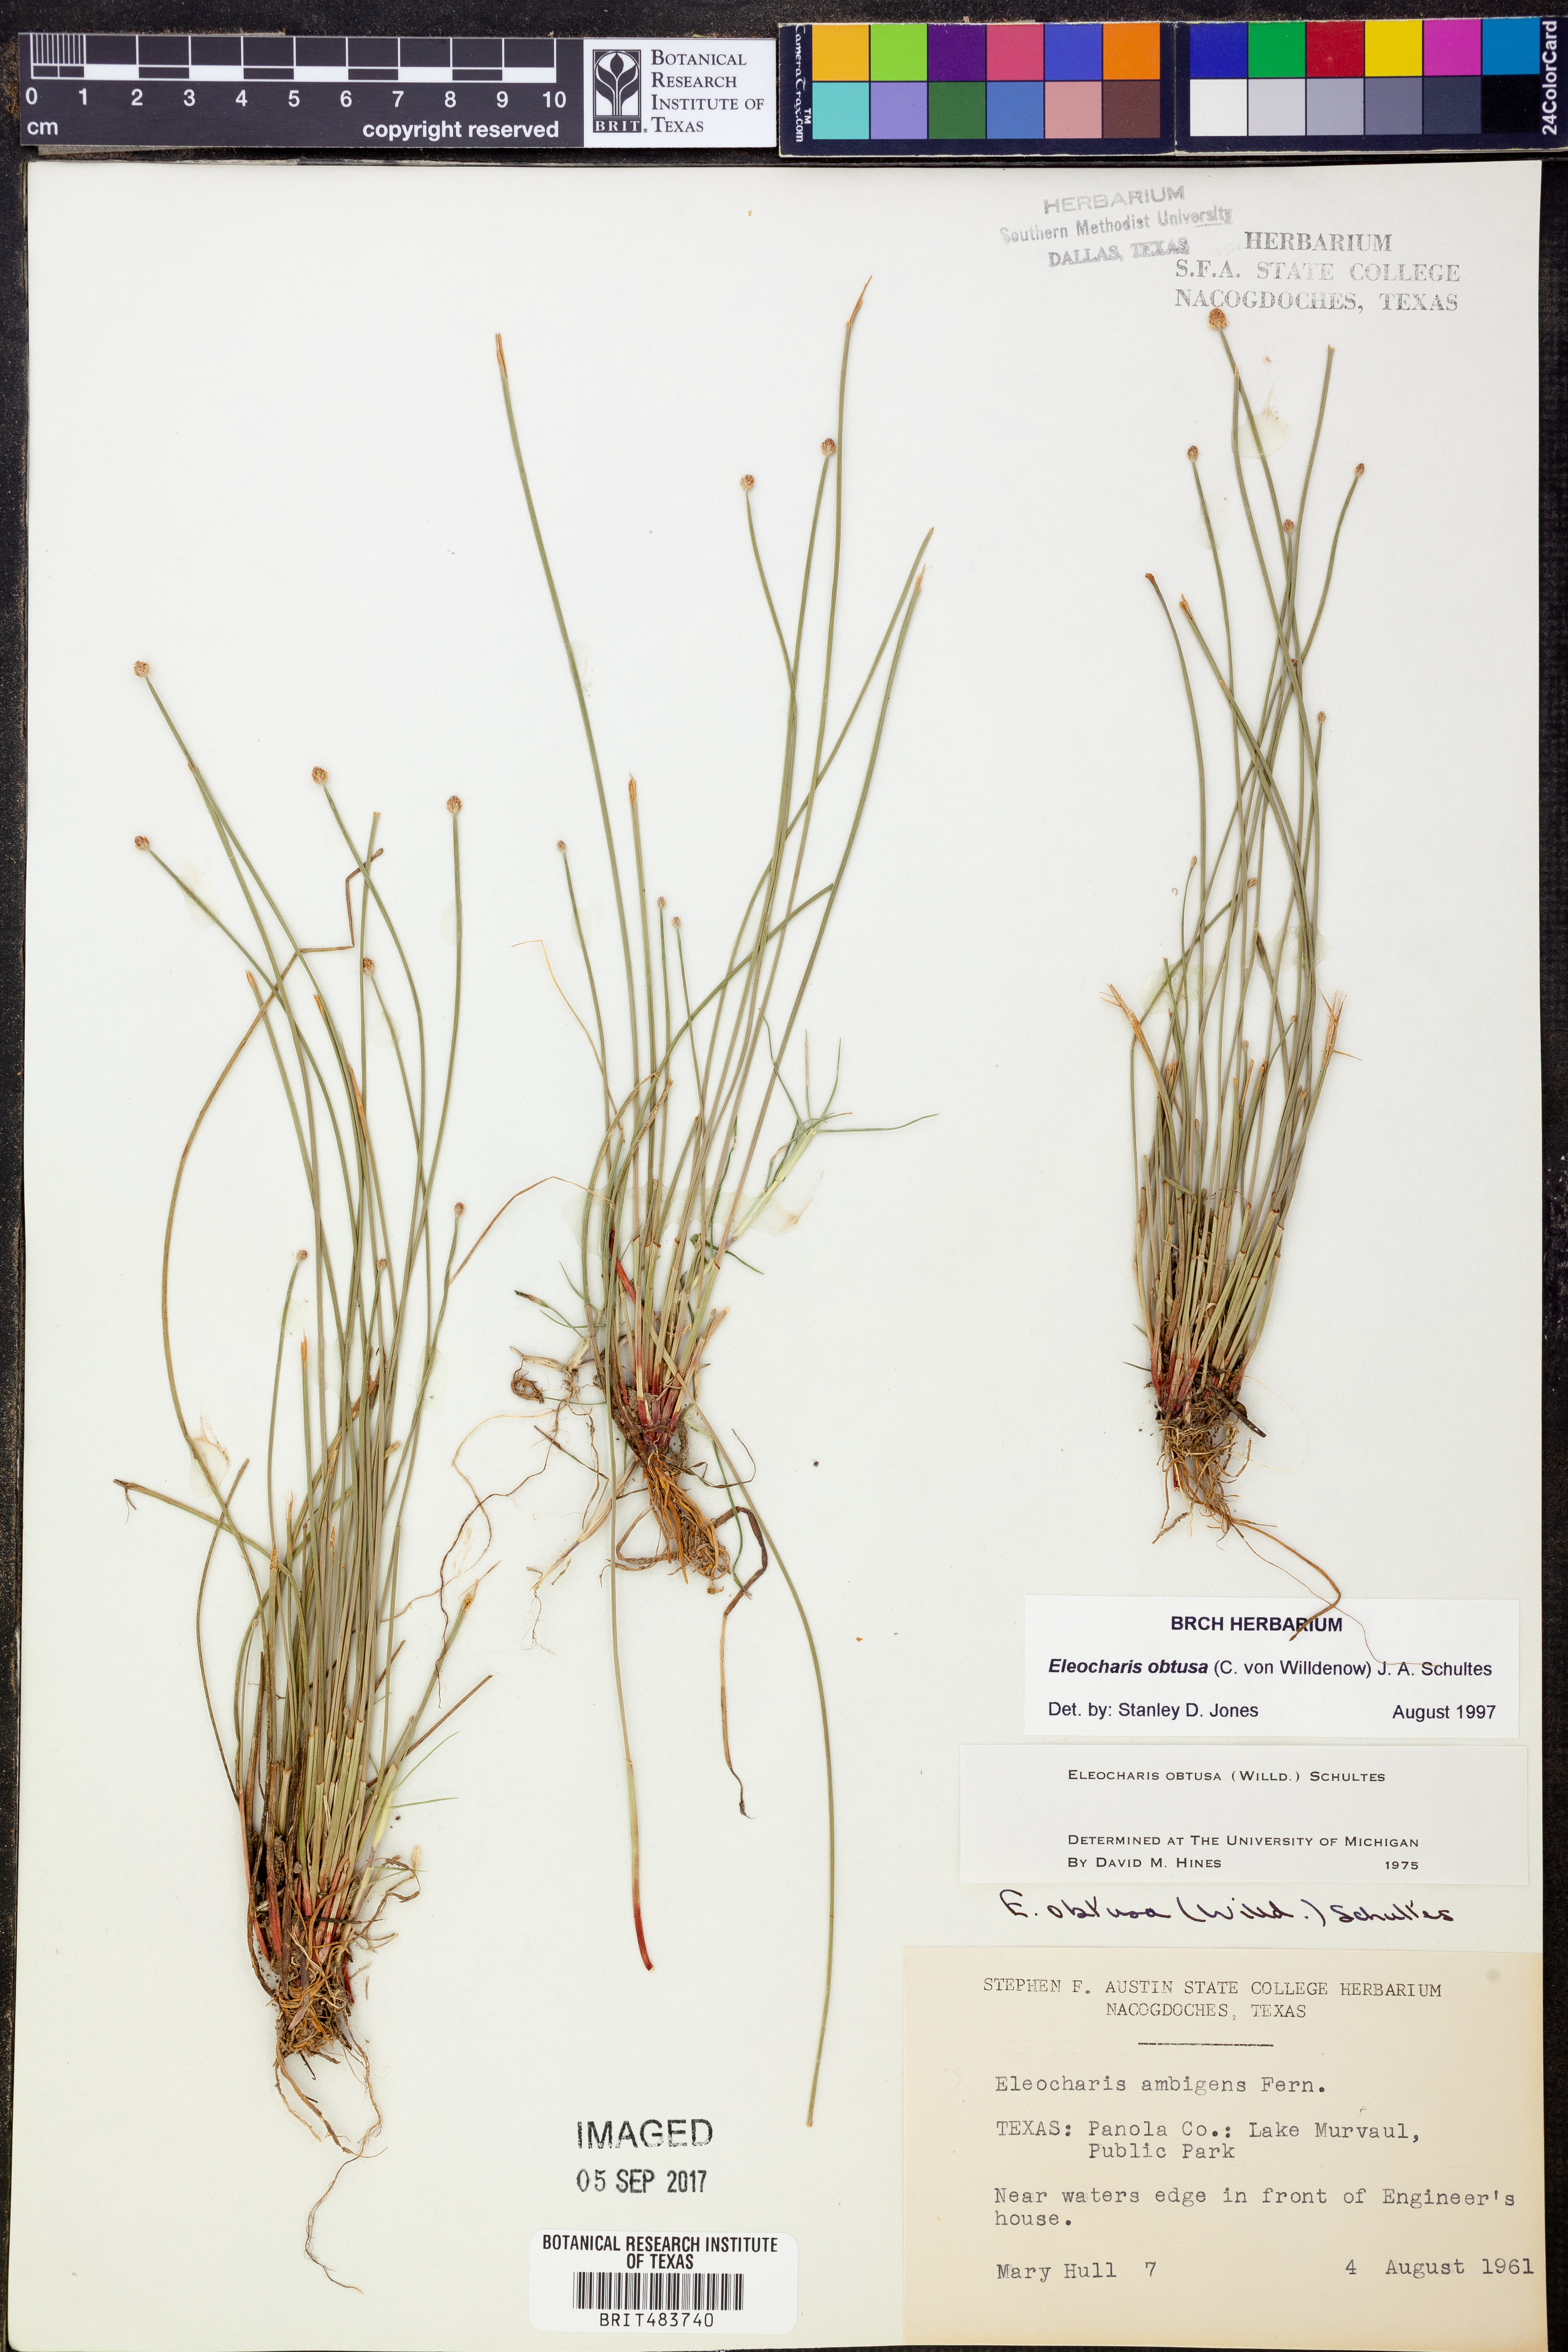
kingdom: Plantae
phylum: Tracheophyta
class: Liliopsida
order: Poales
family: Cyperaceae
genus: Eleocharis
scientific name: Eleocharis obtusa
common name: Blunt spikerush
